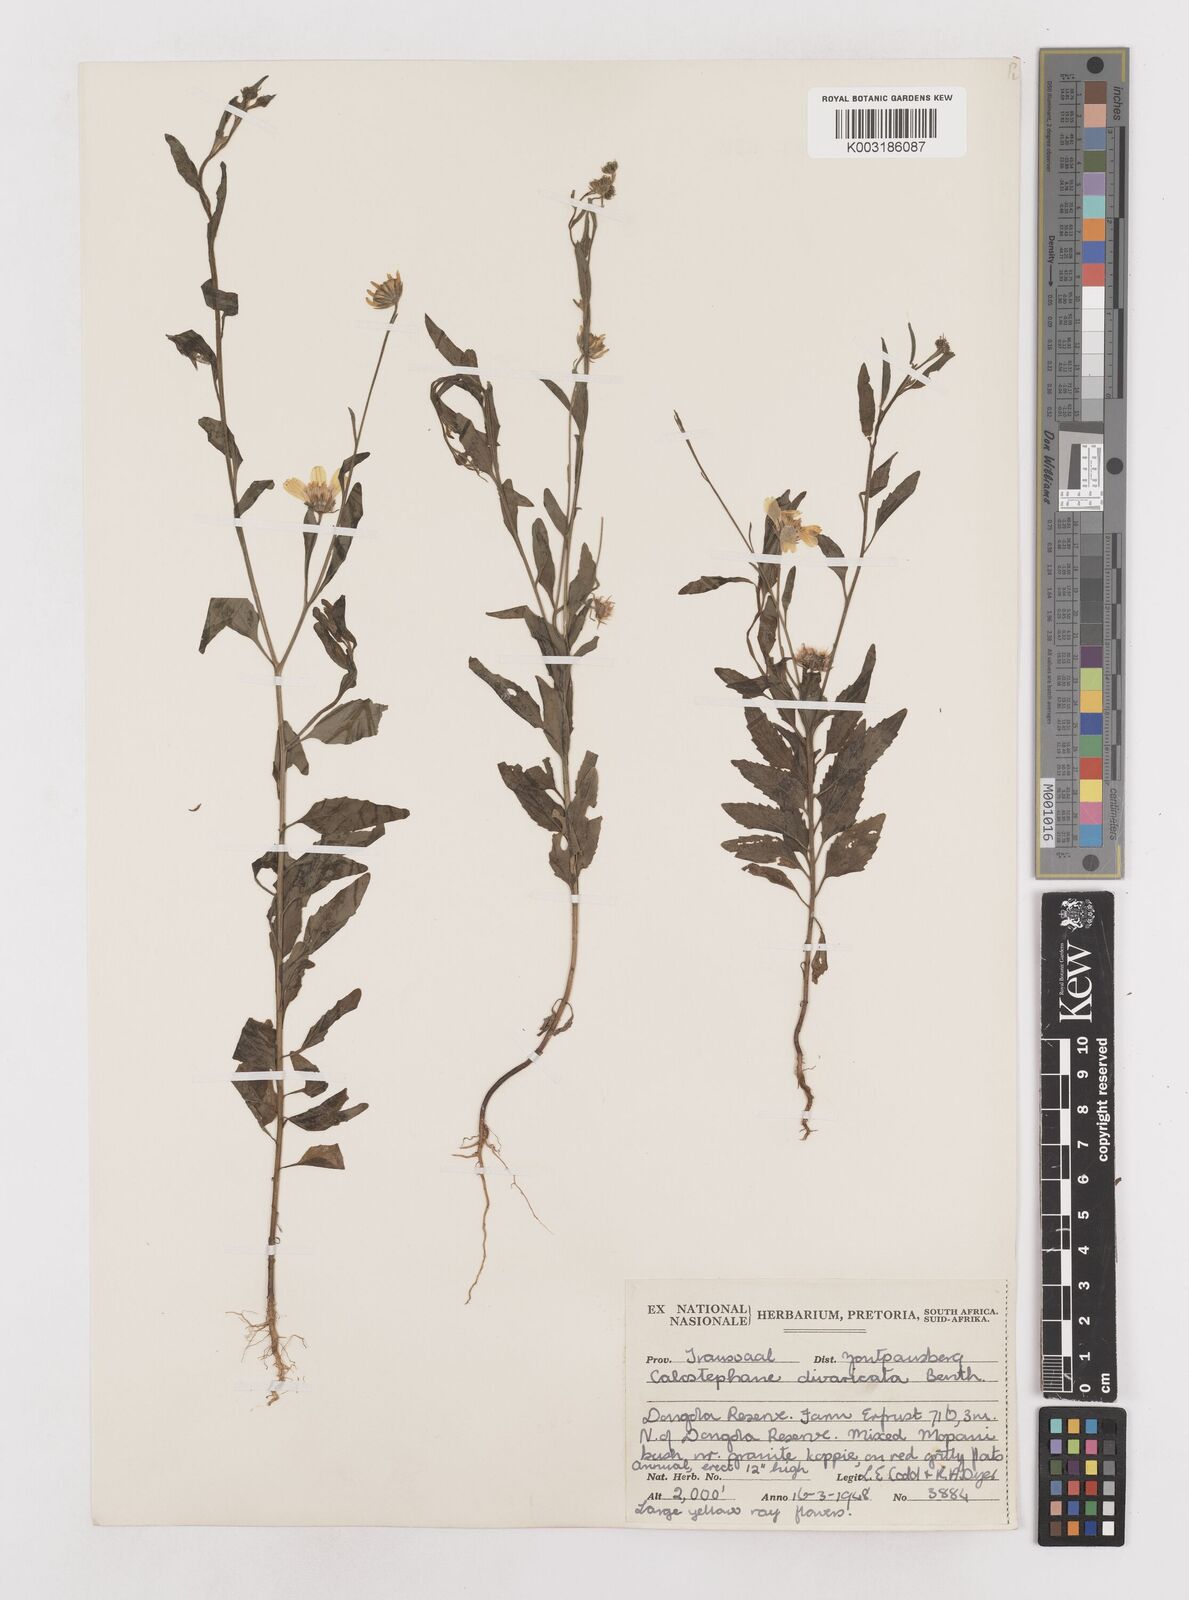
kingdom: Plantae
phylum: Tracheophyta
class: Magnoliopsida
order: Asterales
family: Asteraceae
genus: Calostephane
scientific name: Calostephane divaricata
